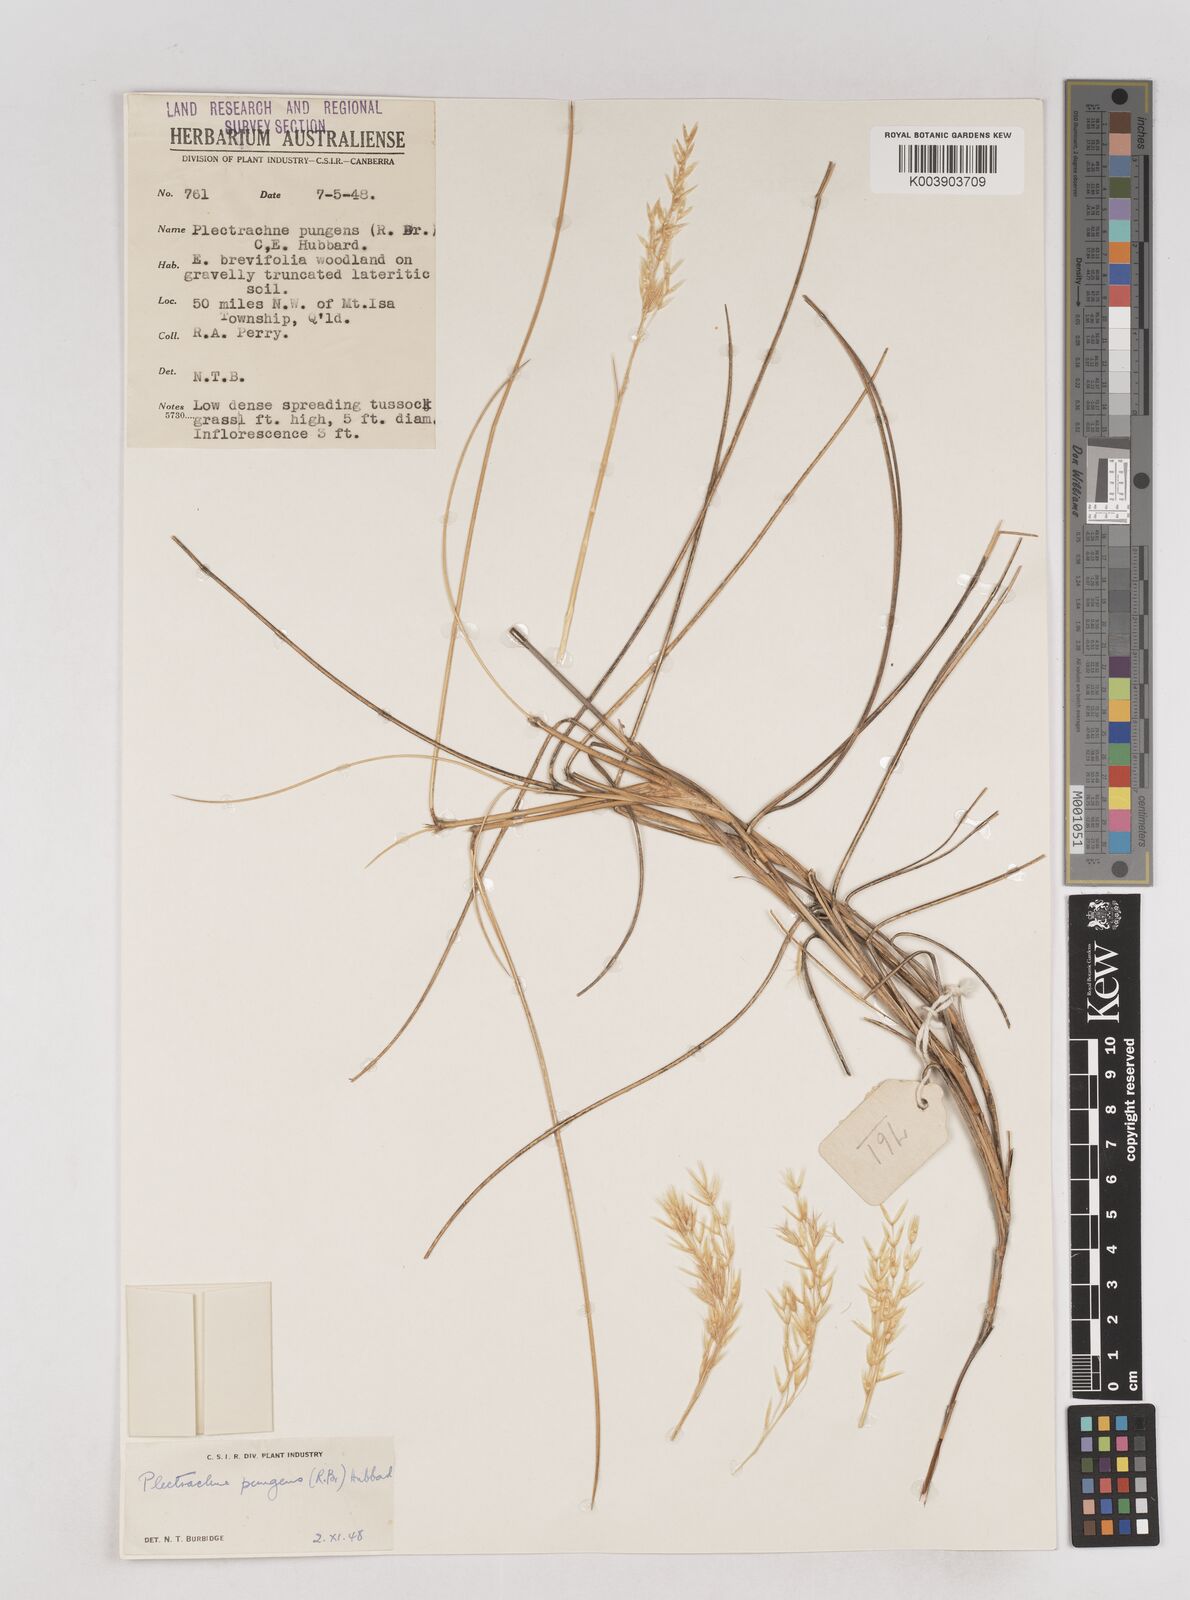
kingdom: Plantae
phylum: Tracheophyta
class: Liliopsida
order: Poales
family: Poaceae
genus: Triodia
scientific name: Triodia bitextura
